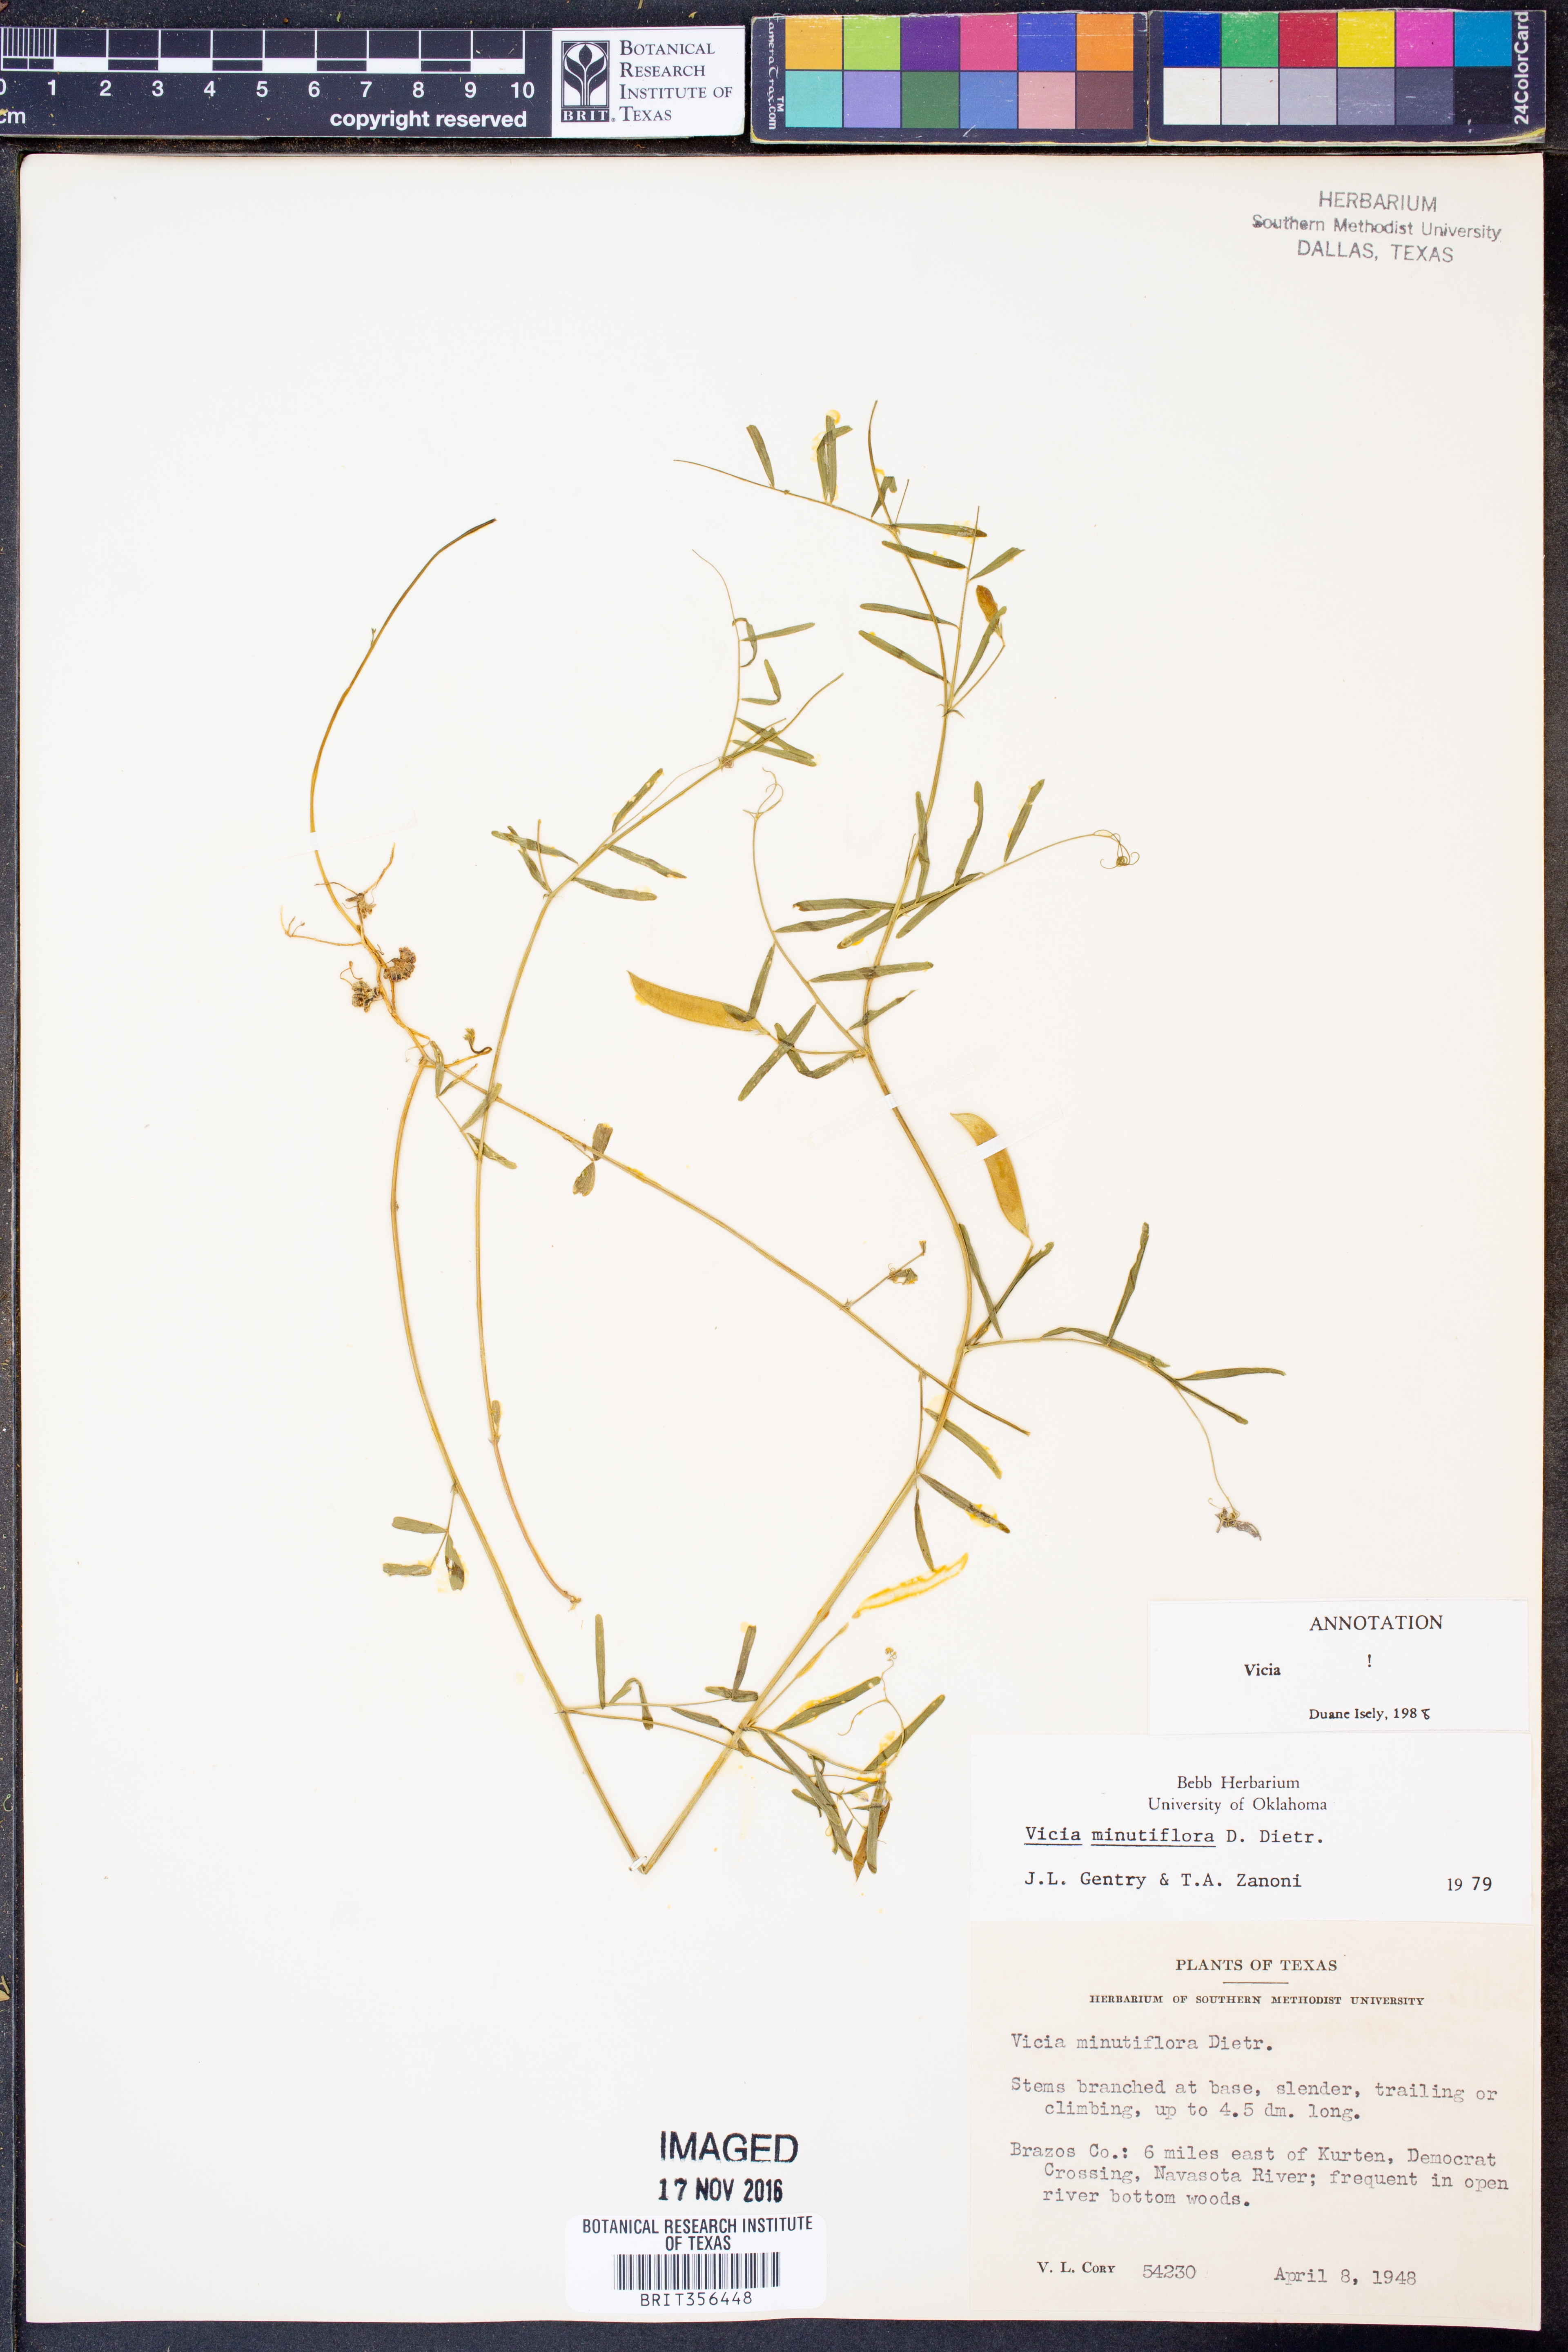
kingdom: Plantae
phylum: Tracheophyta
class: Magnoliopsida
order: Fabales
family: Fabaceae
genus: Vicia
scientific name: Vicia minutiflora
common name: Pygmy-flower vetch
